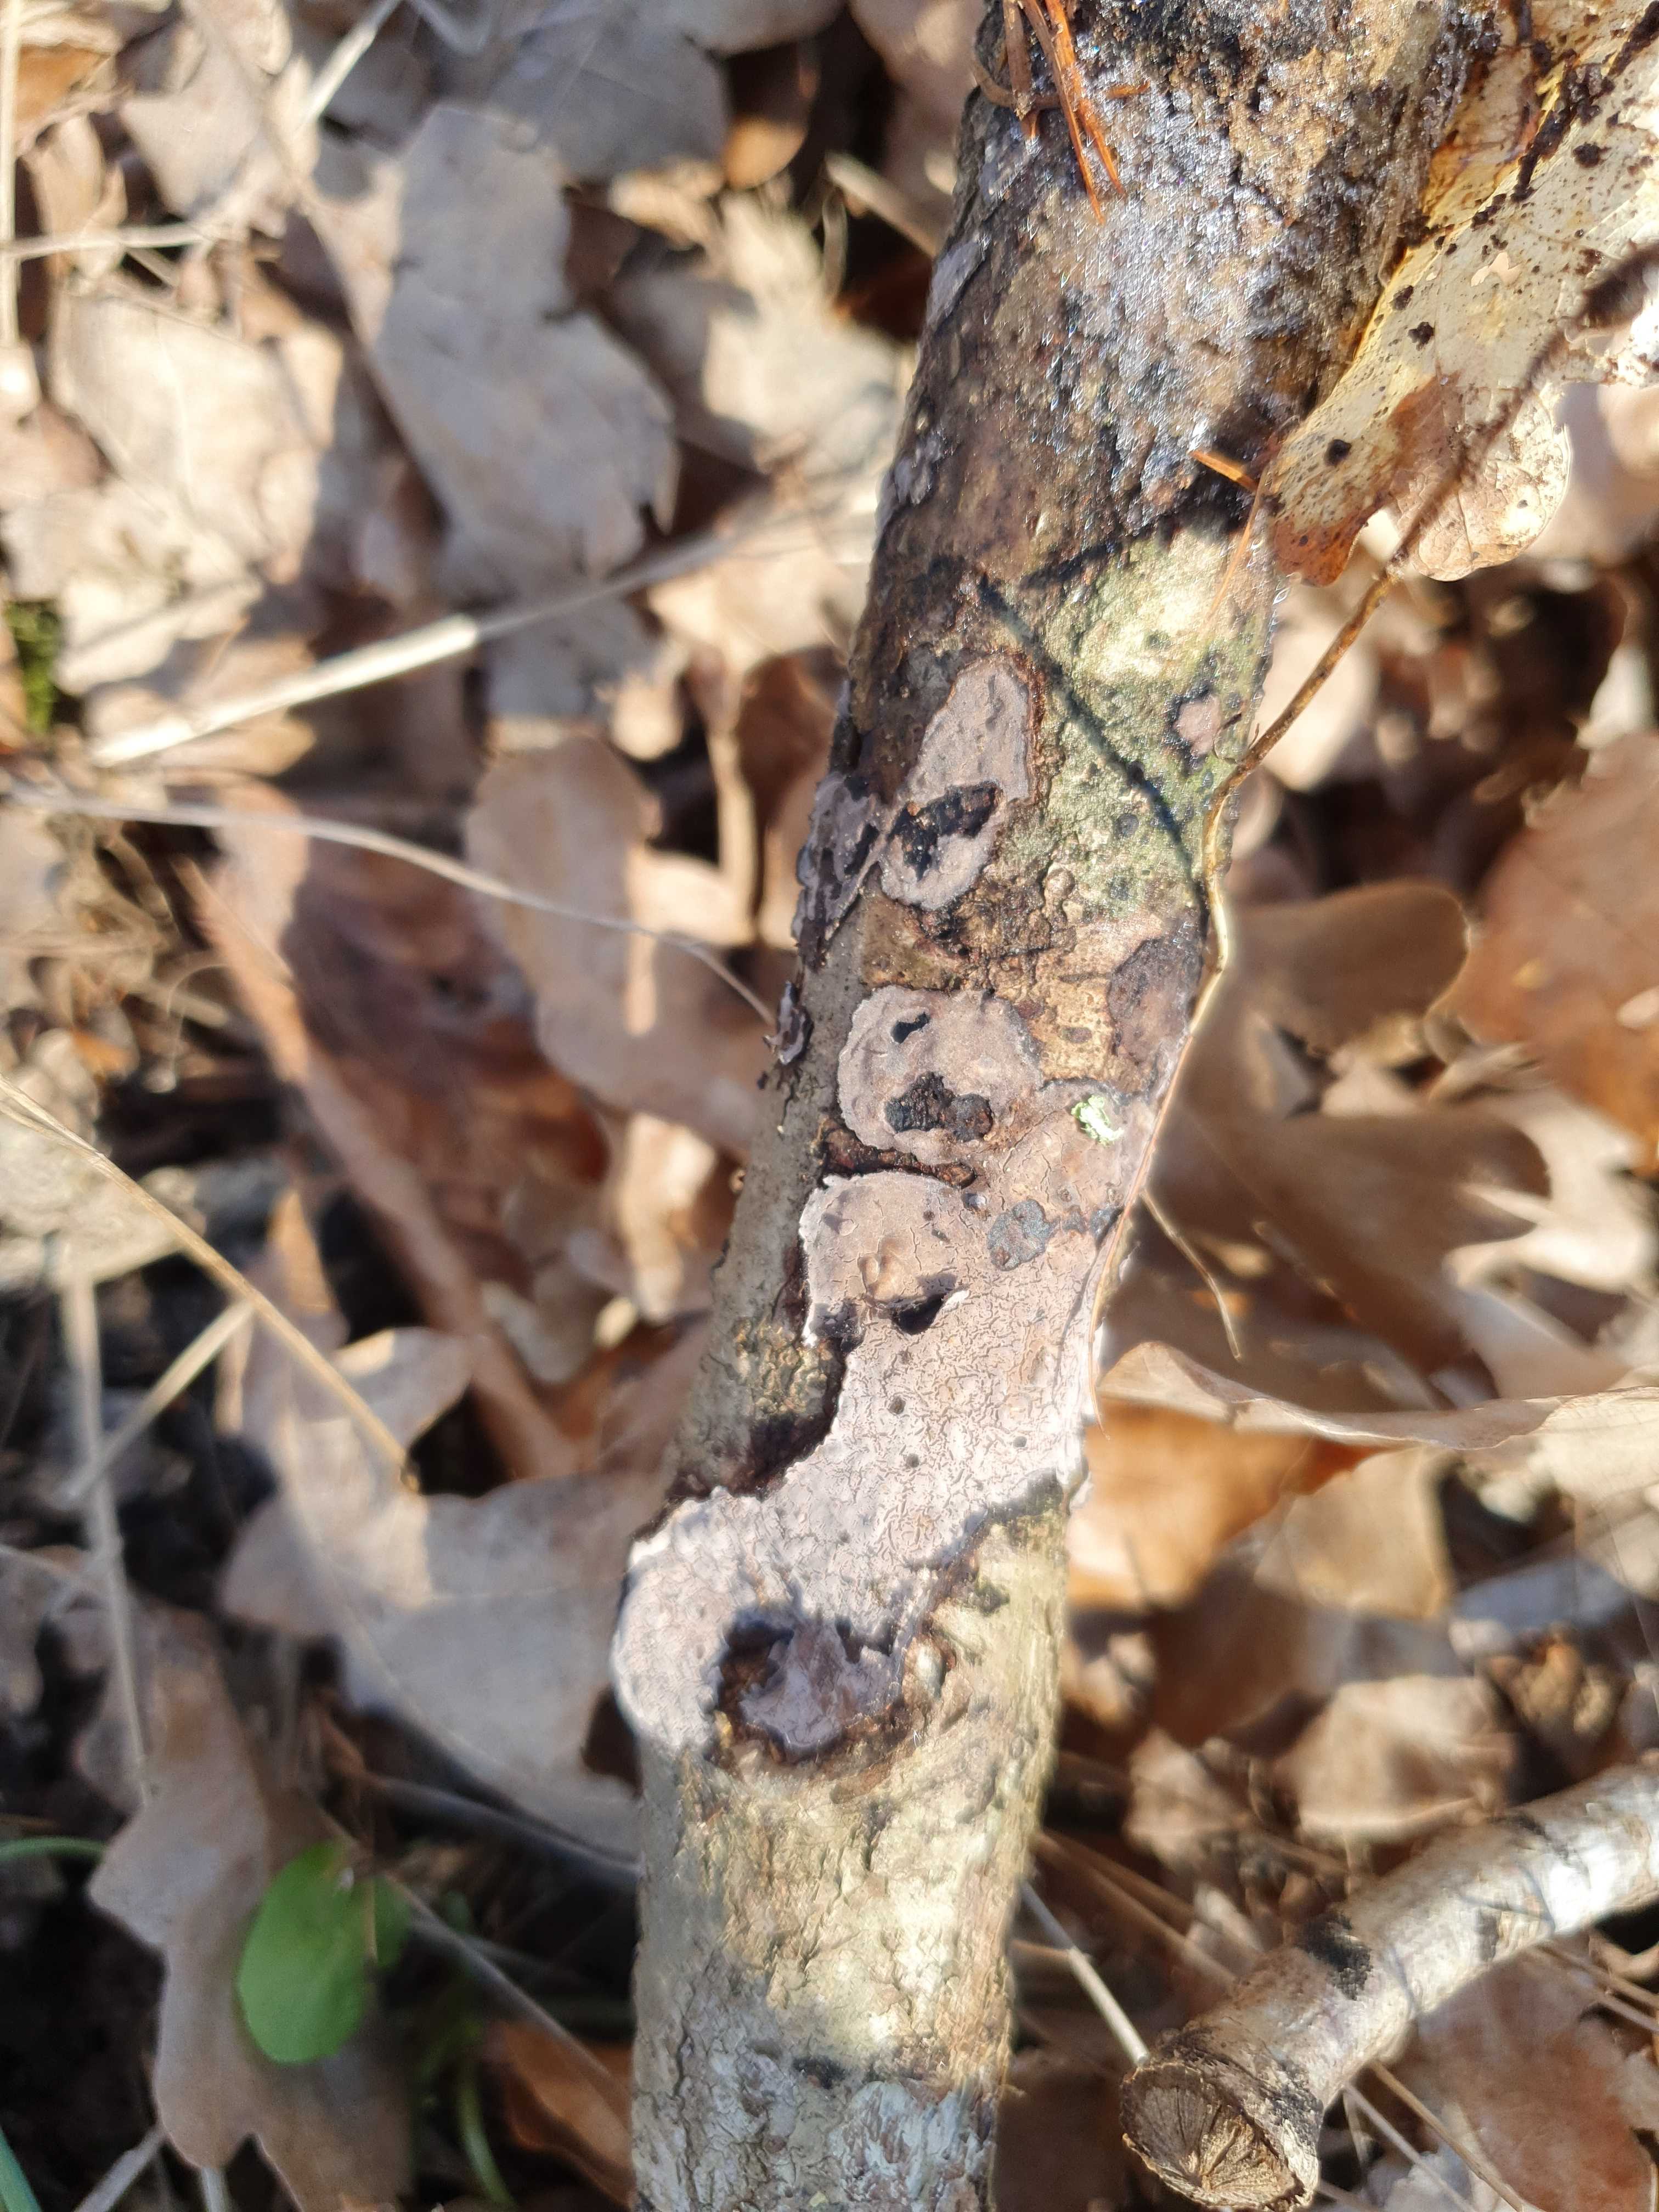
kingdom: Fungi
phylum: Basidiomycota
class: Agaricomycetes
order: Russulales
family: Peniophoraceae
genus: Peniophora
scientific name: Peniophora quercina
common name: ege-voksskind
